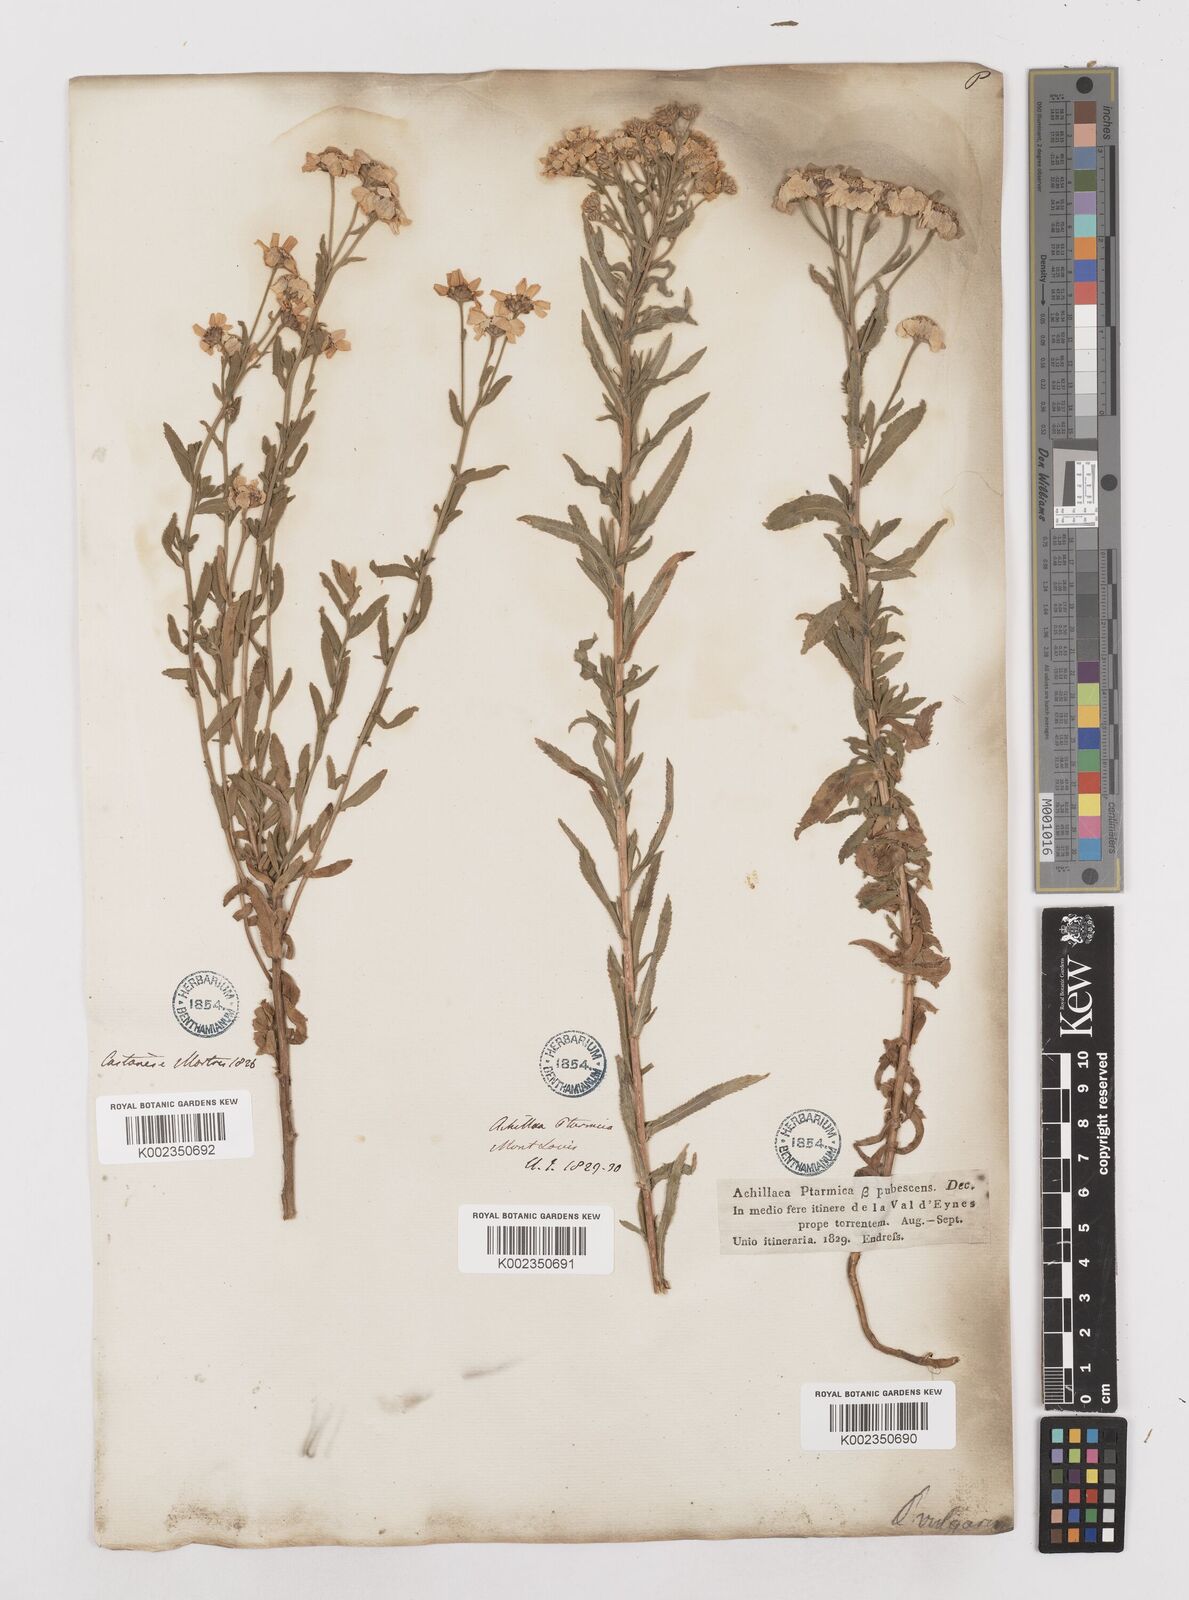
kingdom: Plantae
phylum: Tracheophyta
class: Magnoliopsida
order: Asterales
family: Asteraceae
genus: Achillea
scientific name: Achillea pyrenaica
